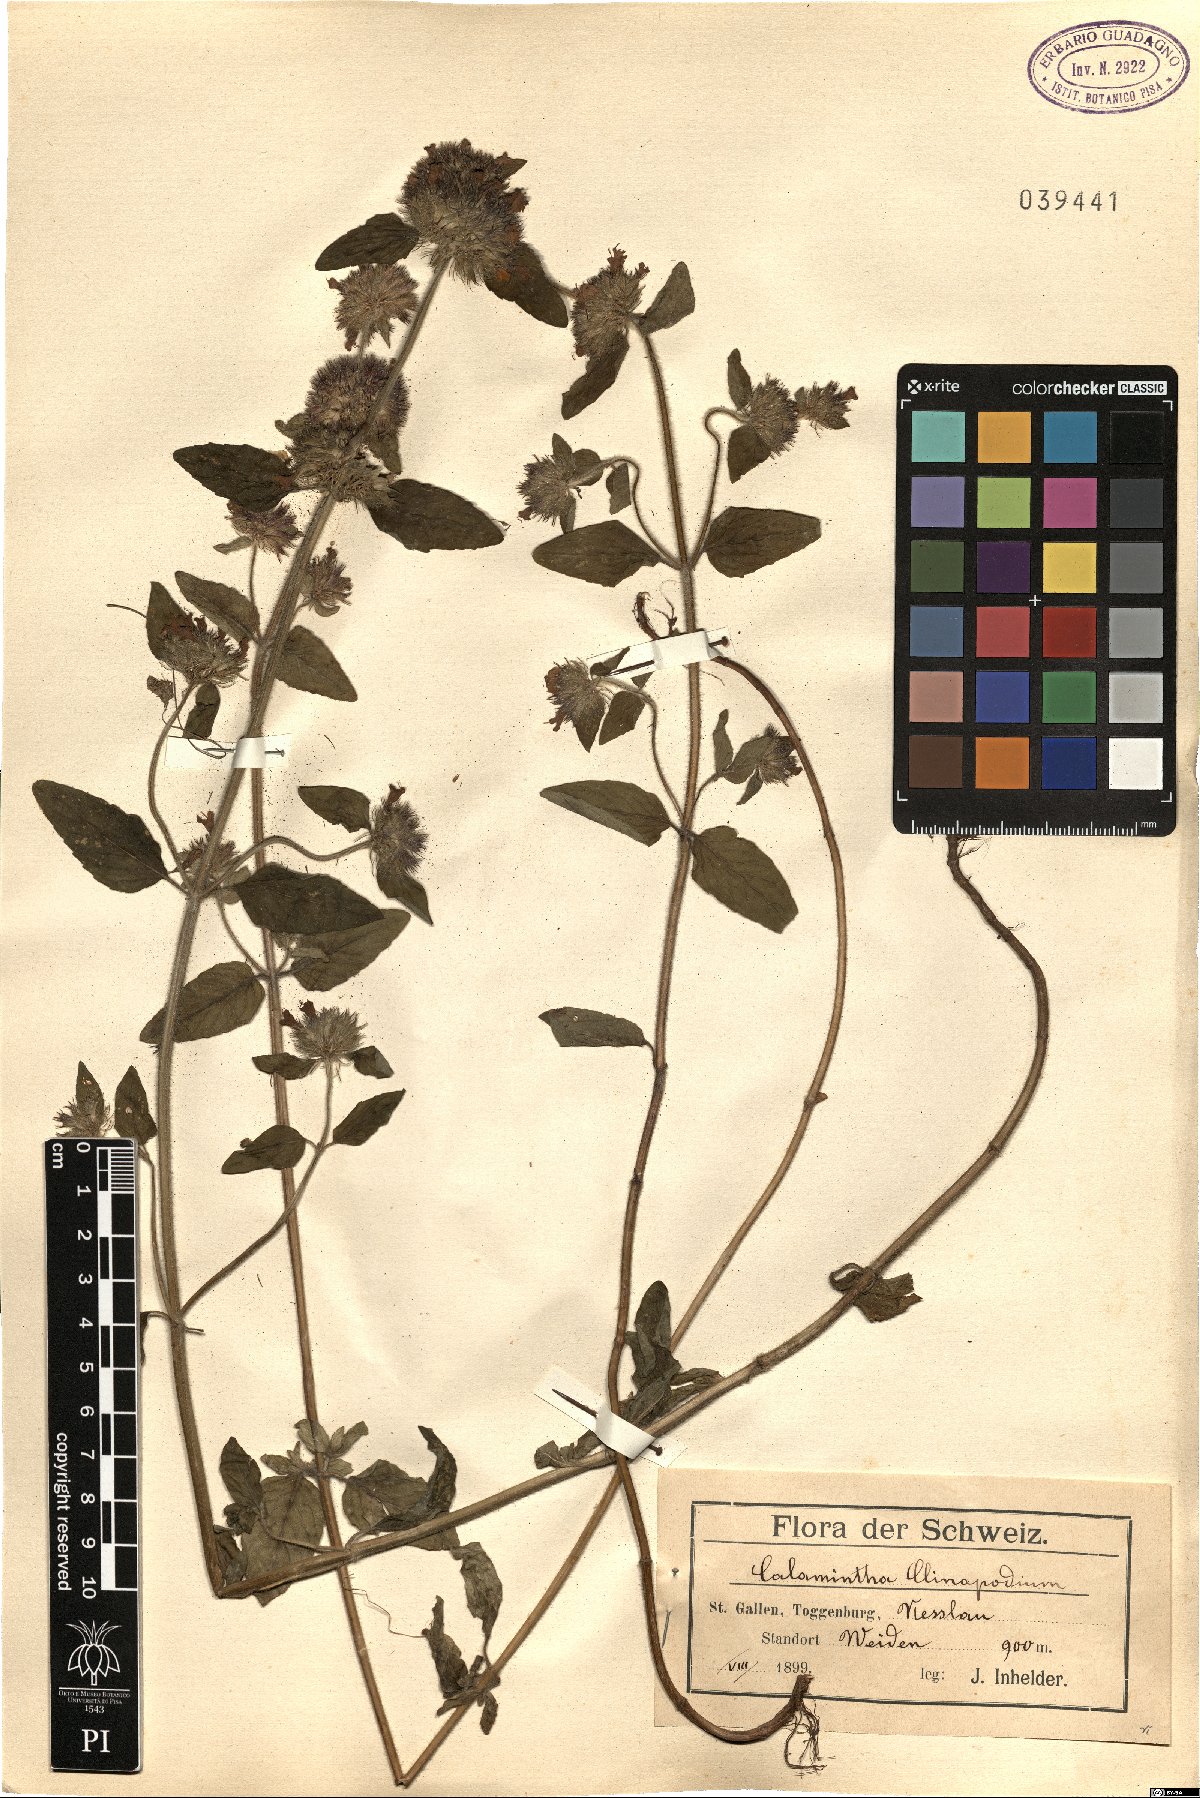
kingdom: Plantae
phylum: Tracheophyta
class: Magnoliopsida
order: Lamiales
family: Lamiaceae
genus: Clinopodium
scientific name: Clinopodium vulgare
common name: Wild basil
